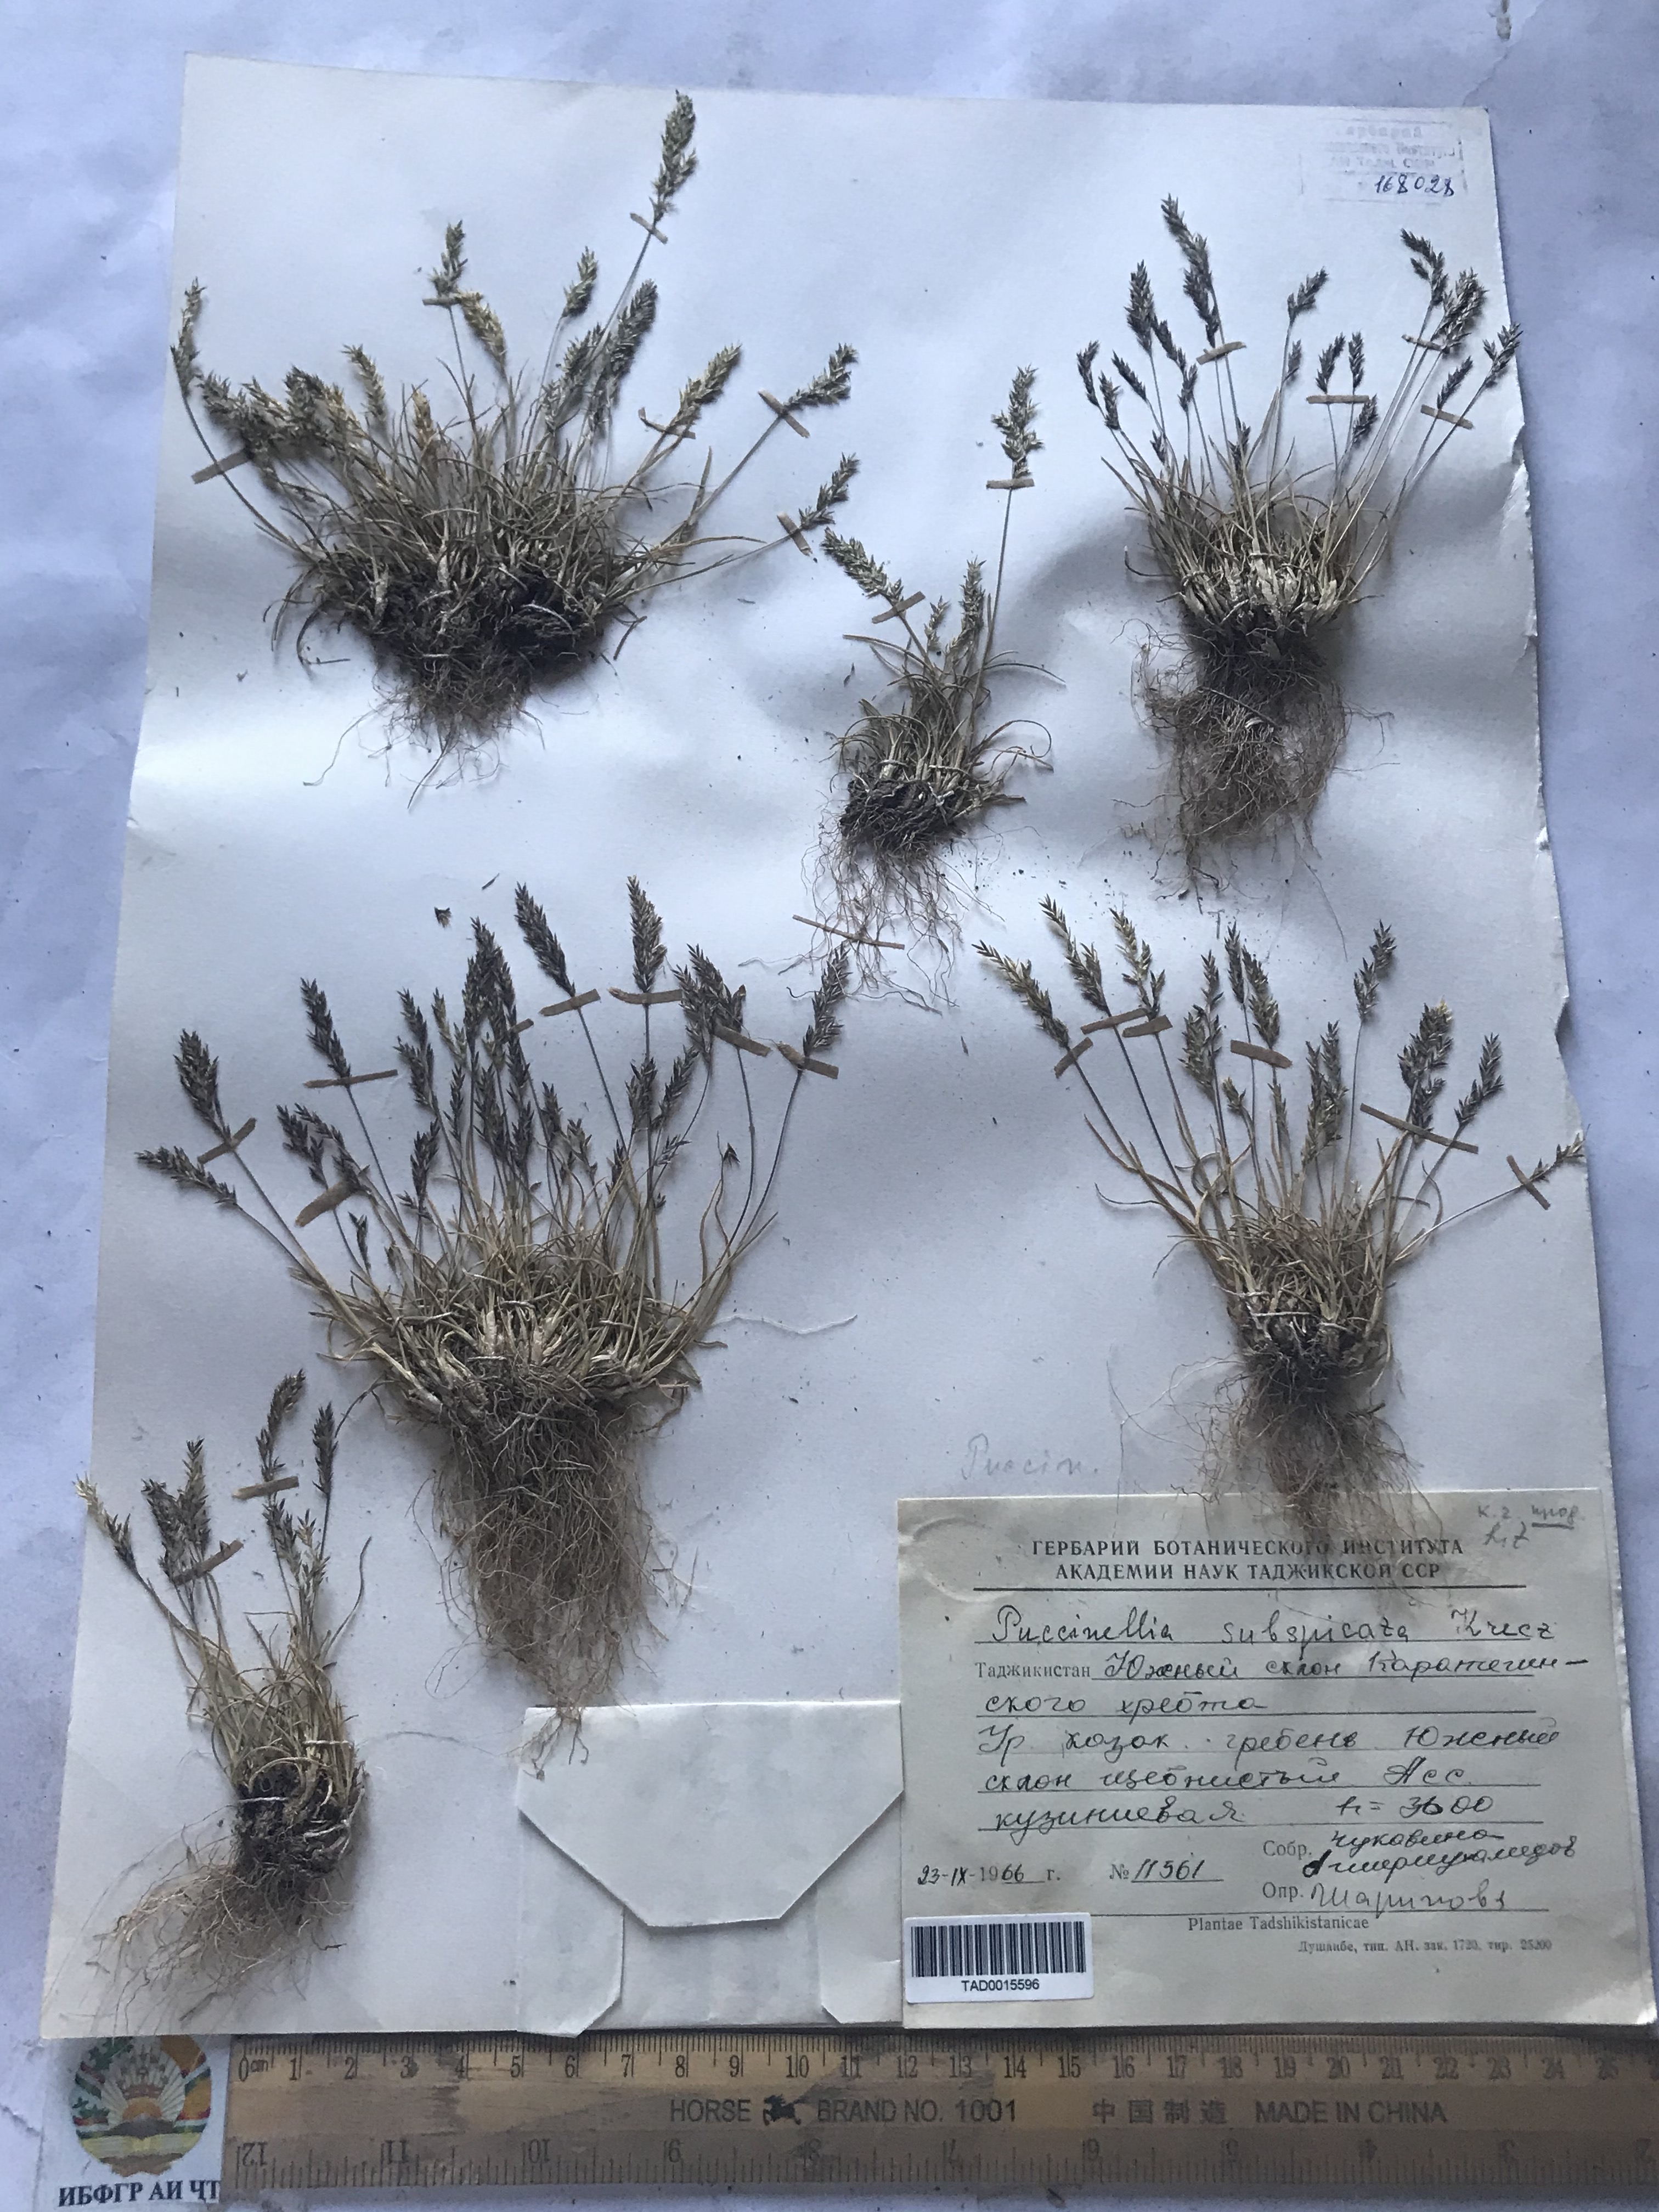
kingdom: Plantae
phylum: Tracheophyta
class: Liliopsida
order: Poales
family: Poaceae
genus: Puccinellia
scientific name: Puccinellia subspicata
